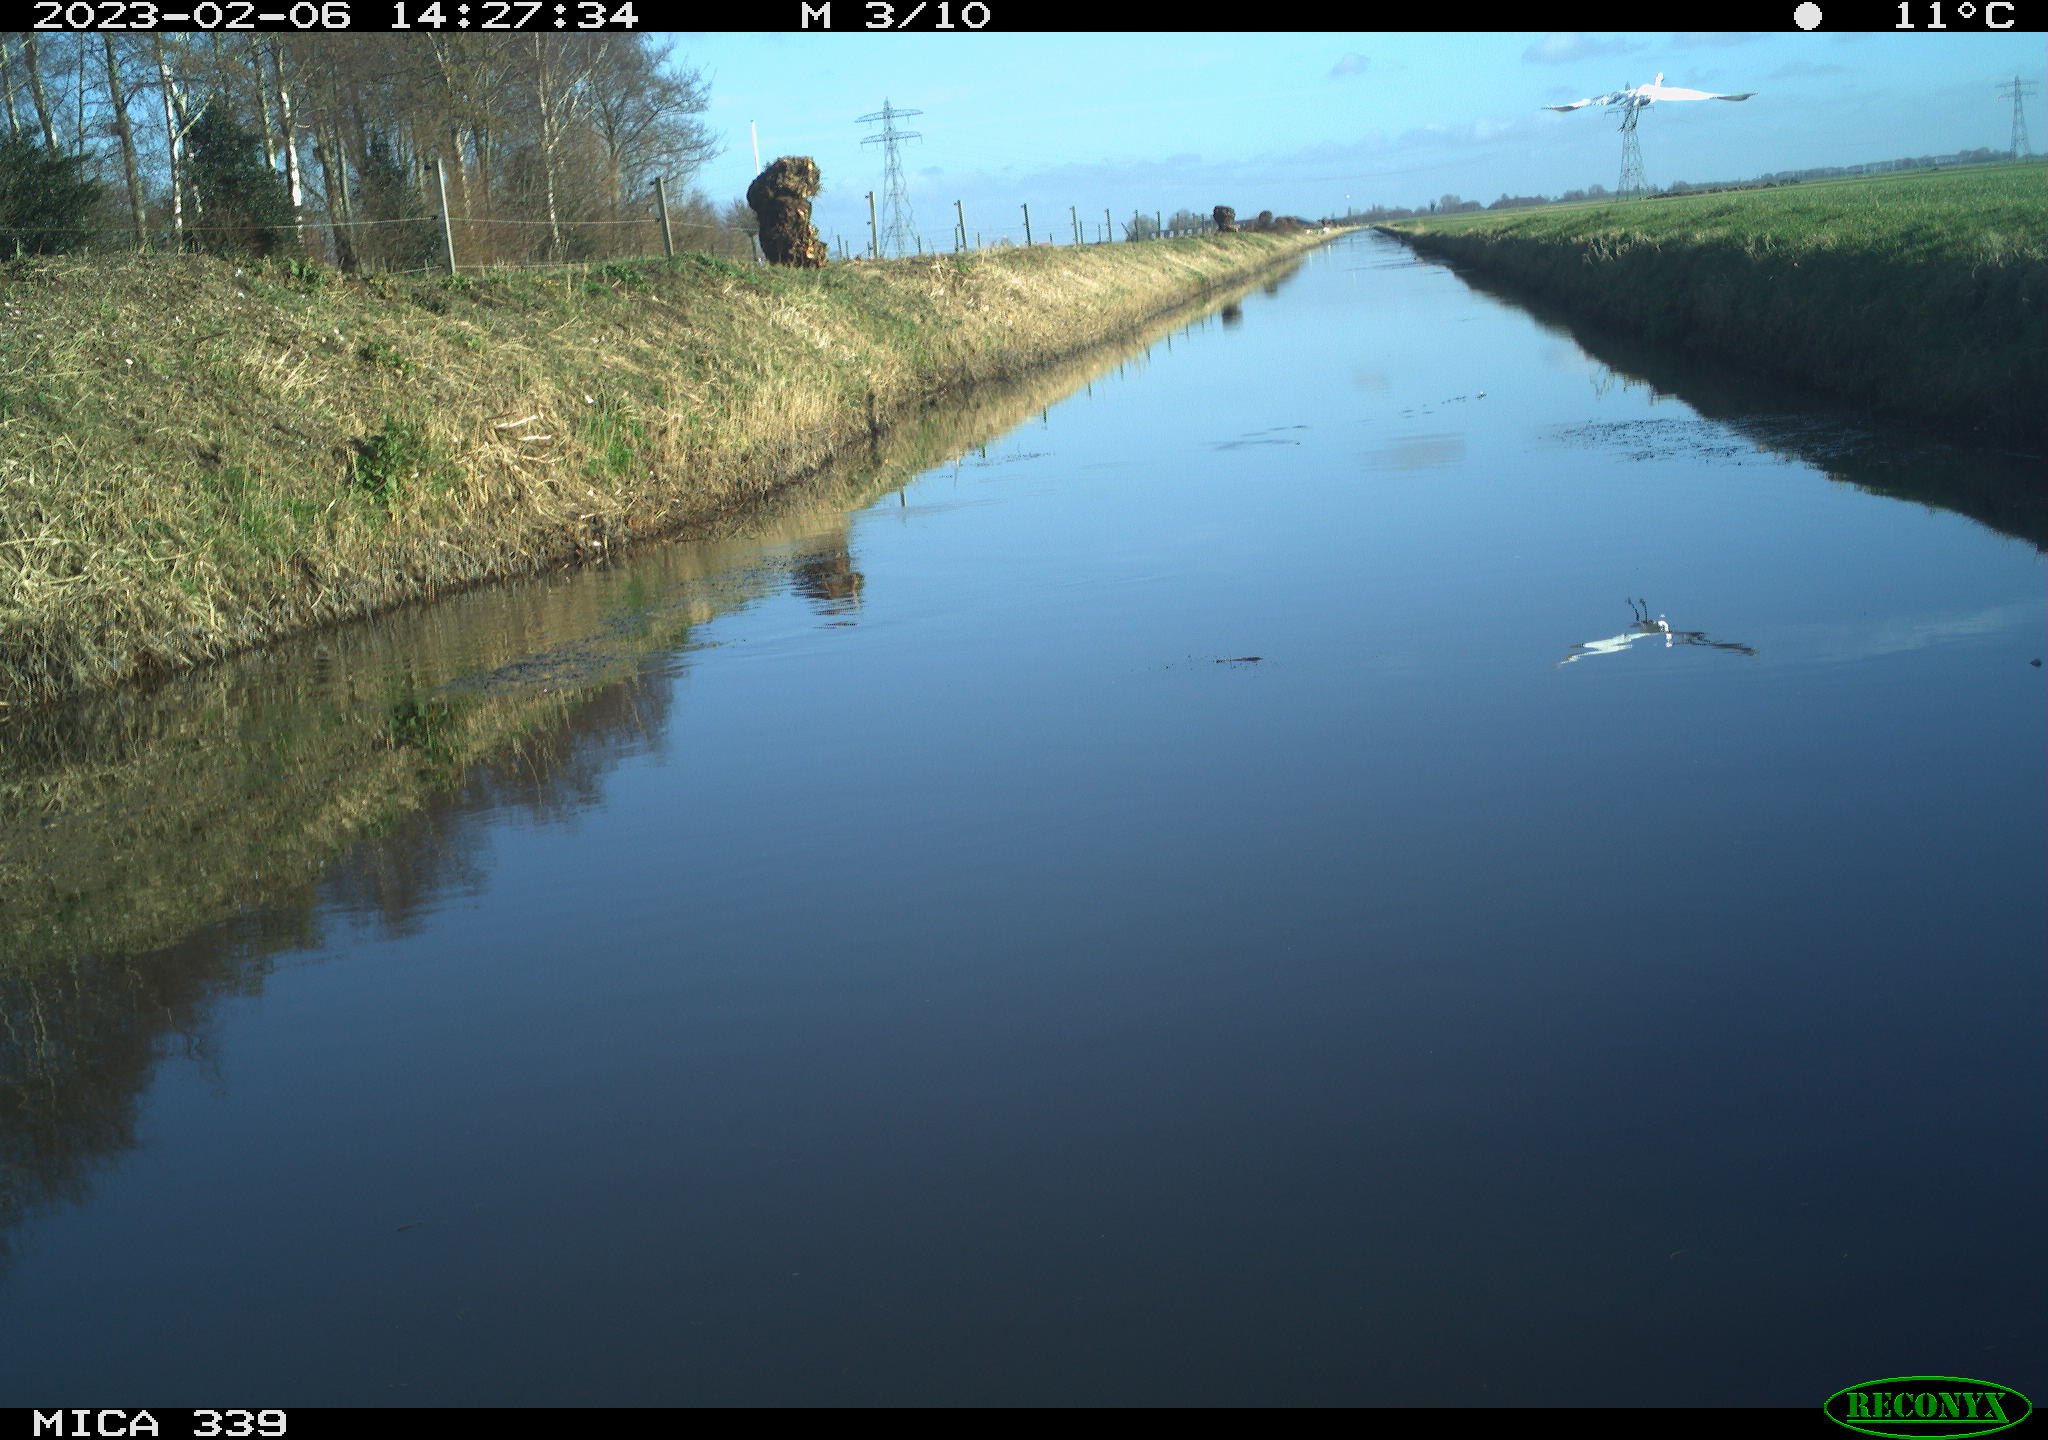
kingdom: Animalia
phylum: Chordata
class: Aves
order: Pelecaniformes
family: Ardeidae
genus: Ardea
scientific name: Ardea alba
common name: Great egret
